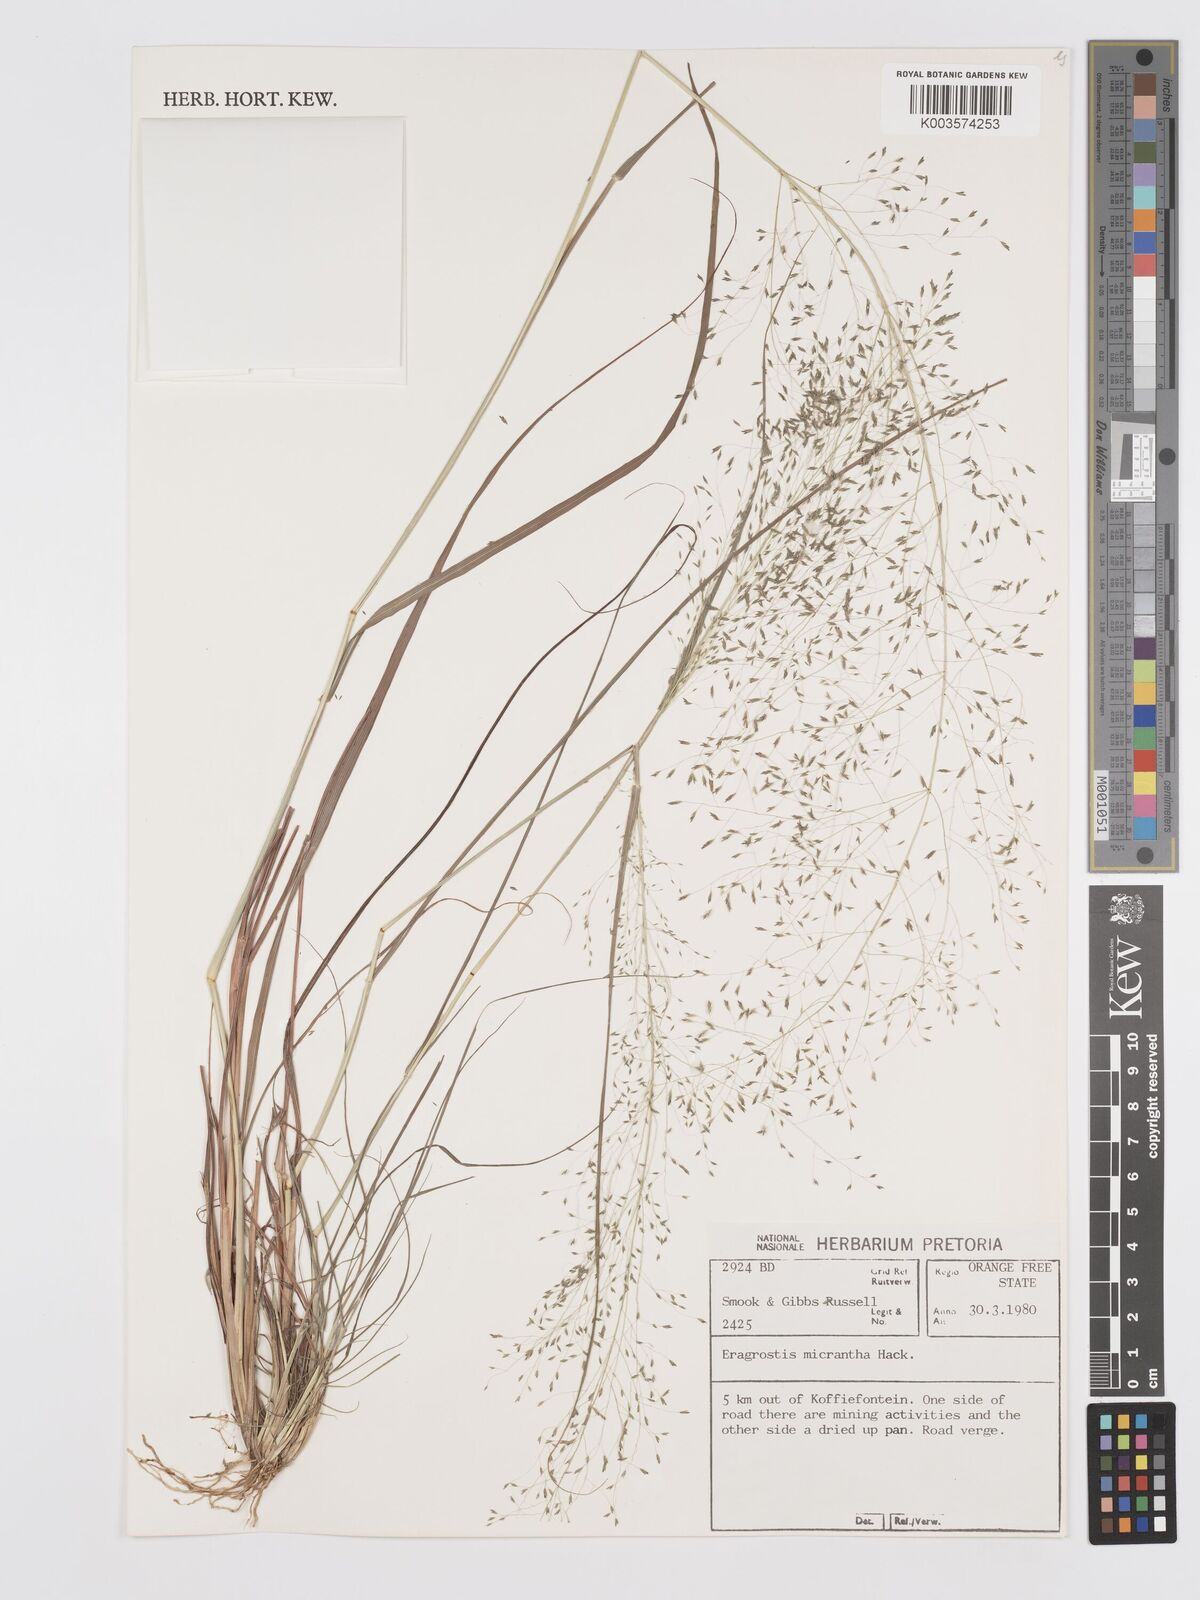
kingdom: Plantae
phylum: Tracheophyta
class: Liliopsida
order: Poales
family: Poaceae
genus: Eragrostis
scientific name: Eragrostis micrantha
